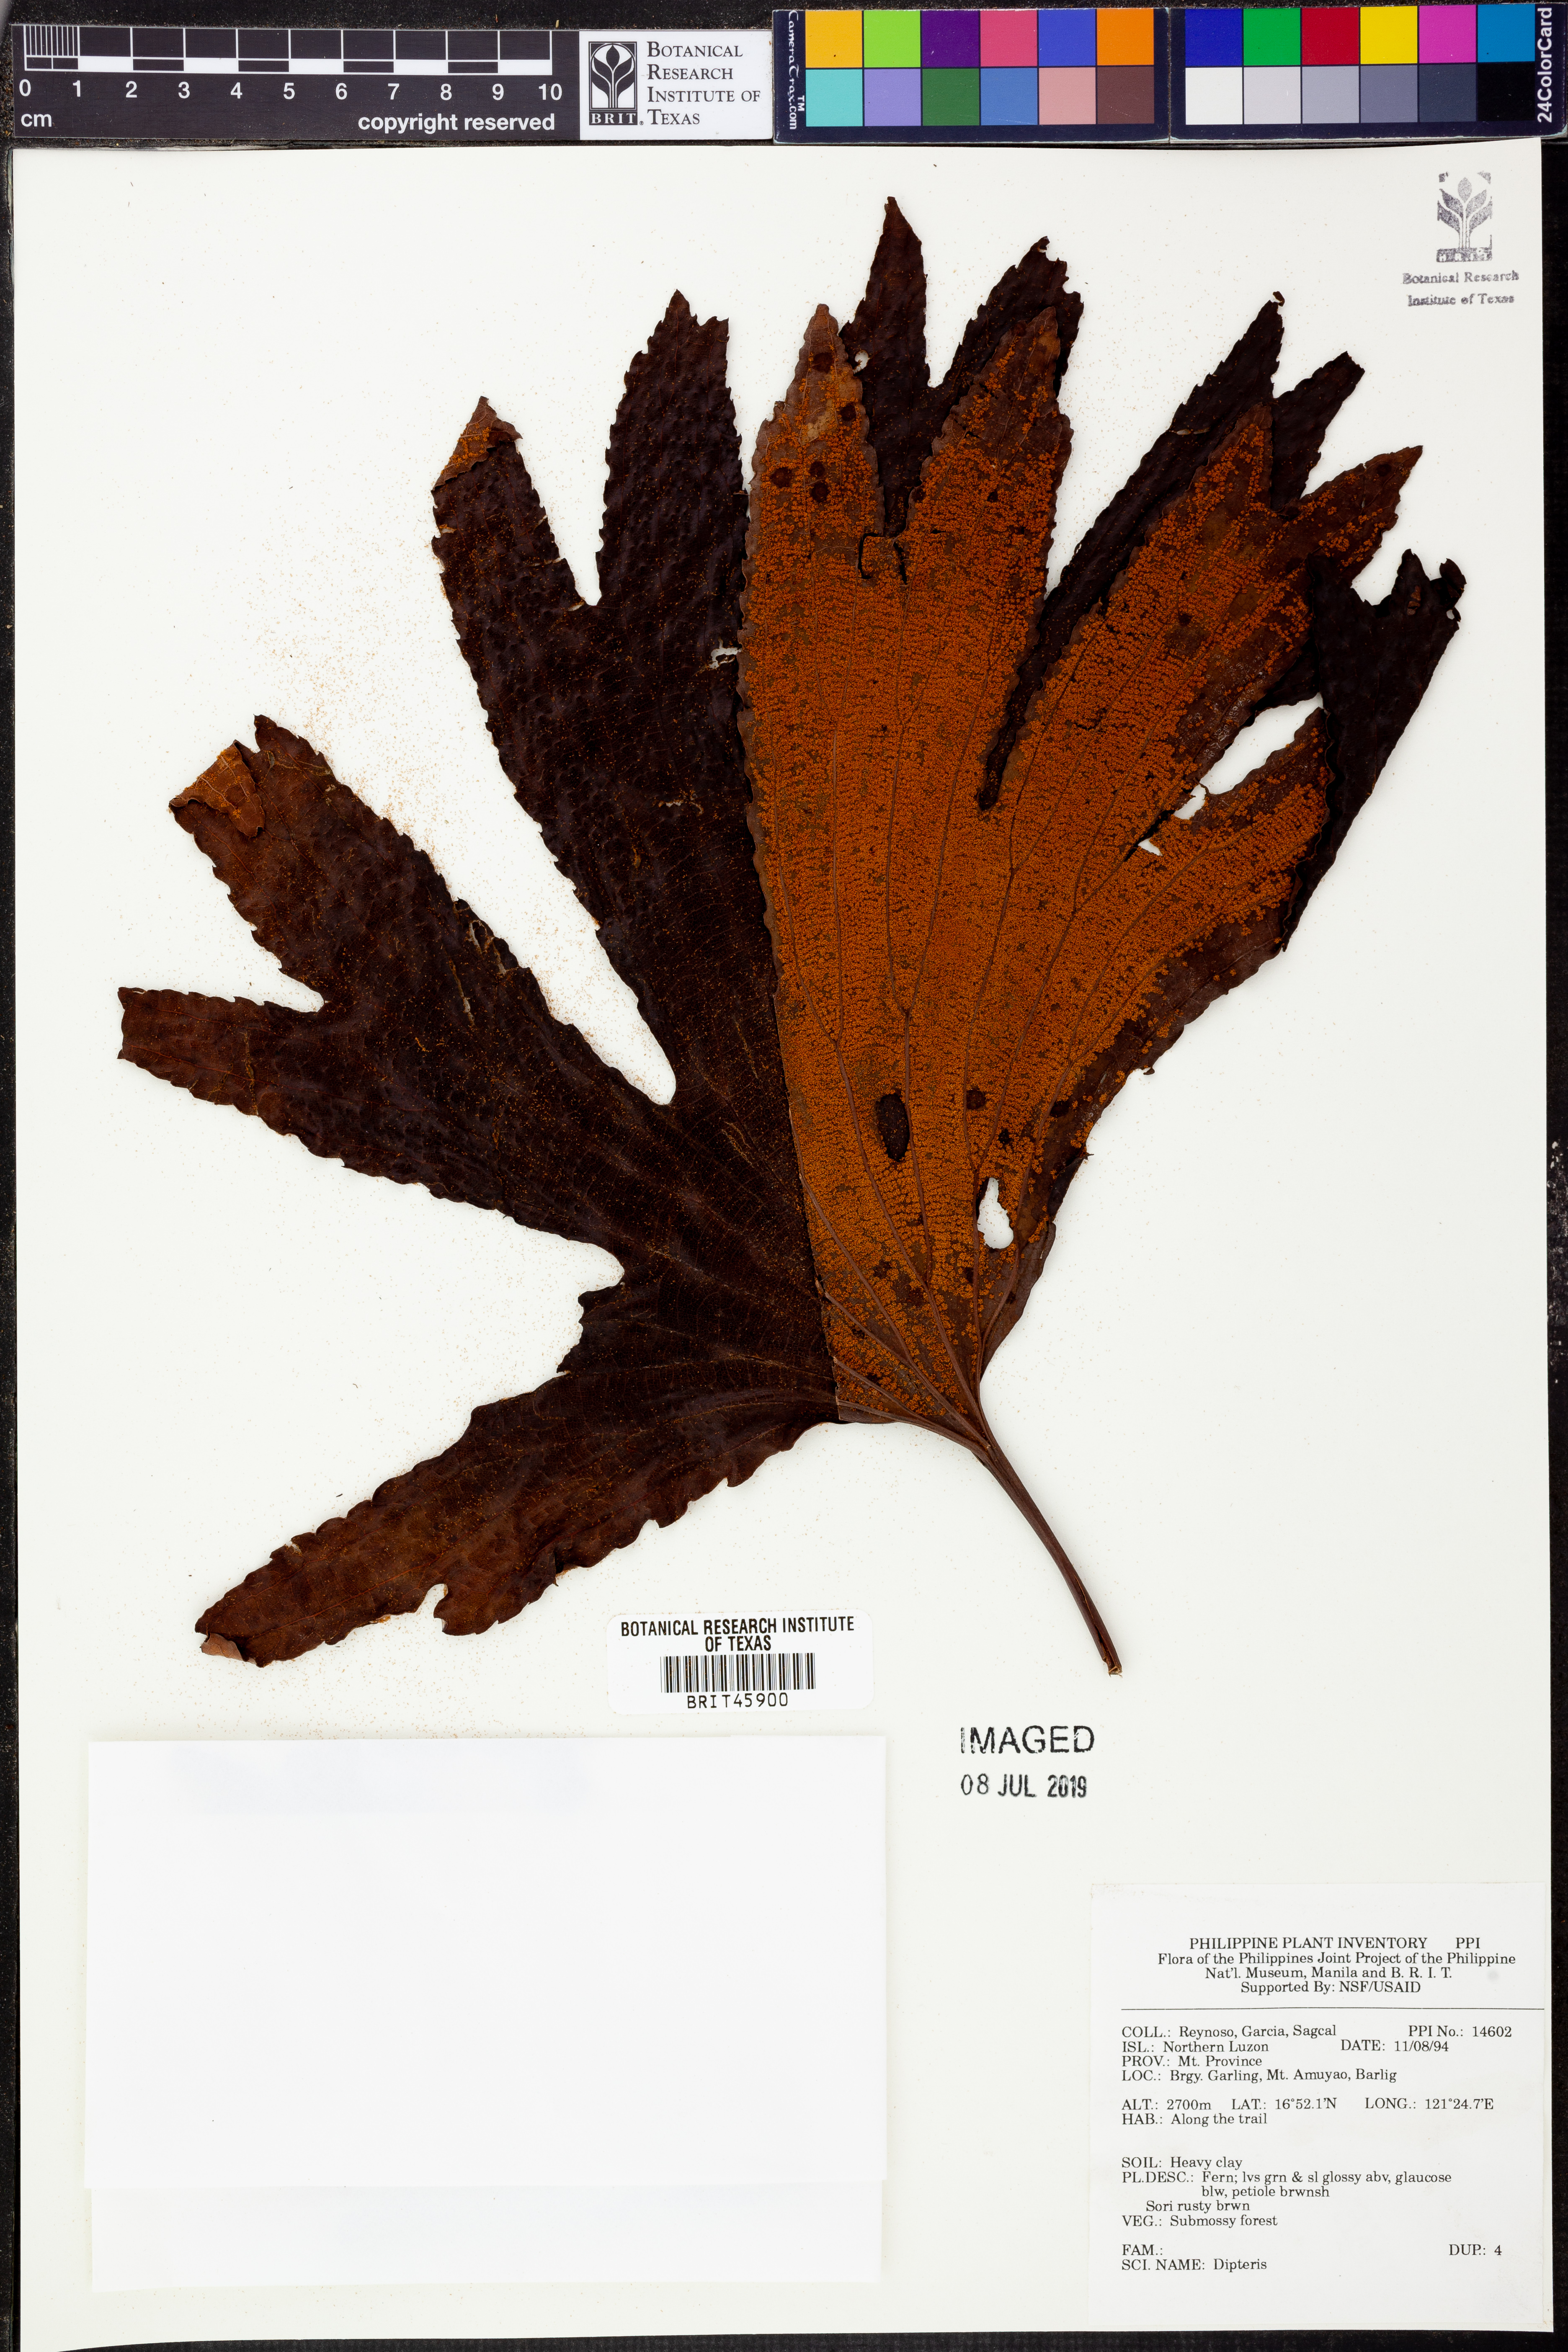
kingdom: Plantae
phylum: Tracheophyta
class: Polypodiopsida
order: Gleicheniales
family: Dipteridaceae
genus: Dipteris
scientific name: Dipteris
